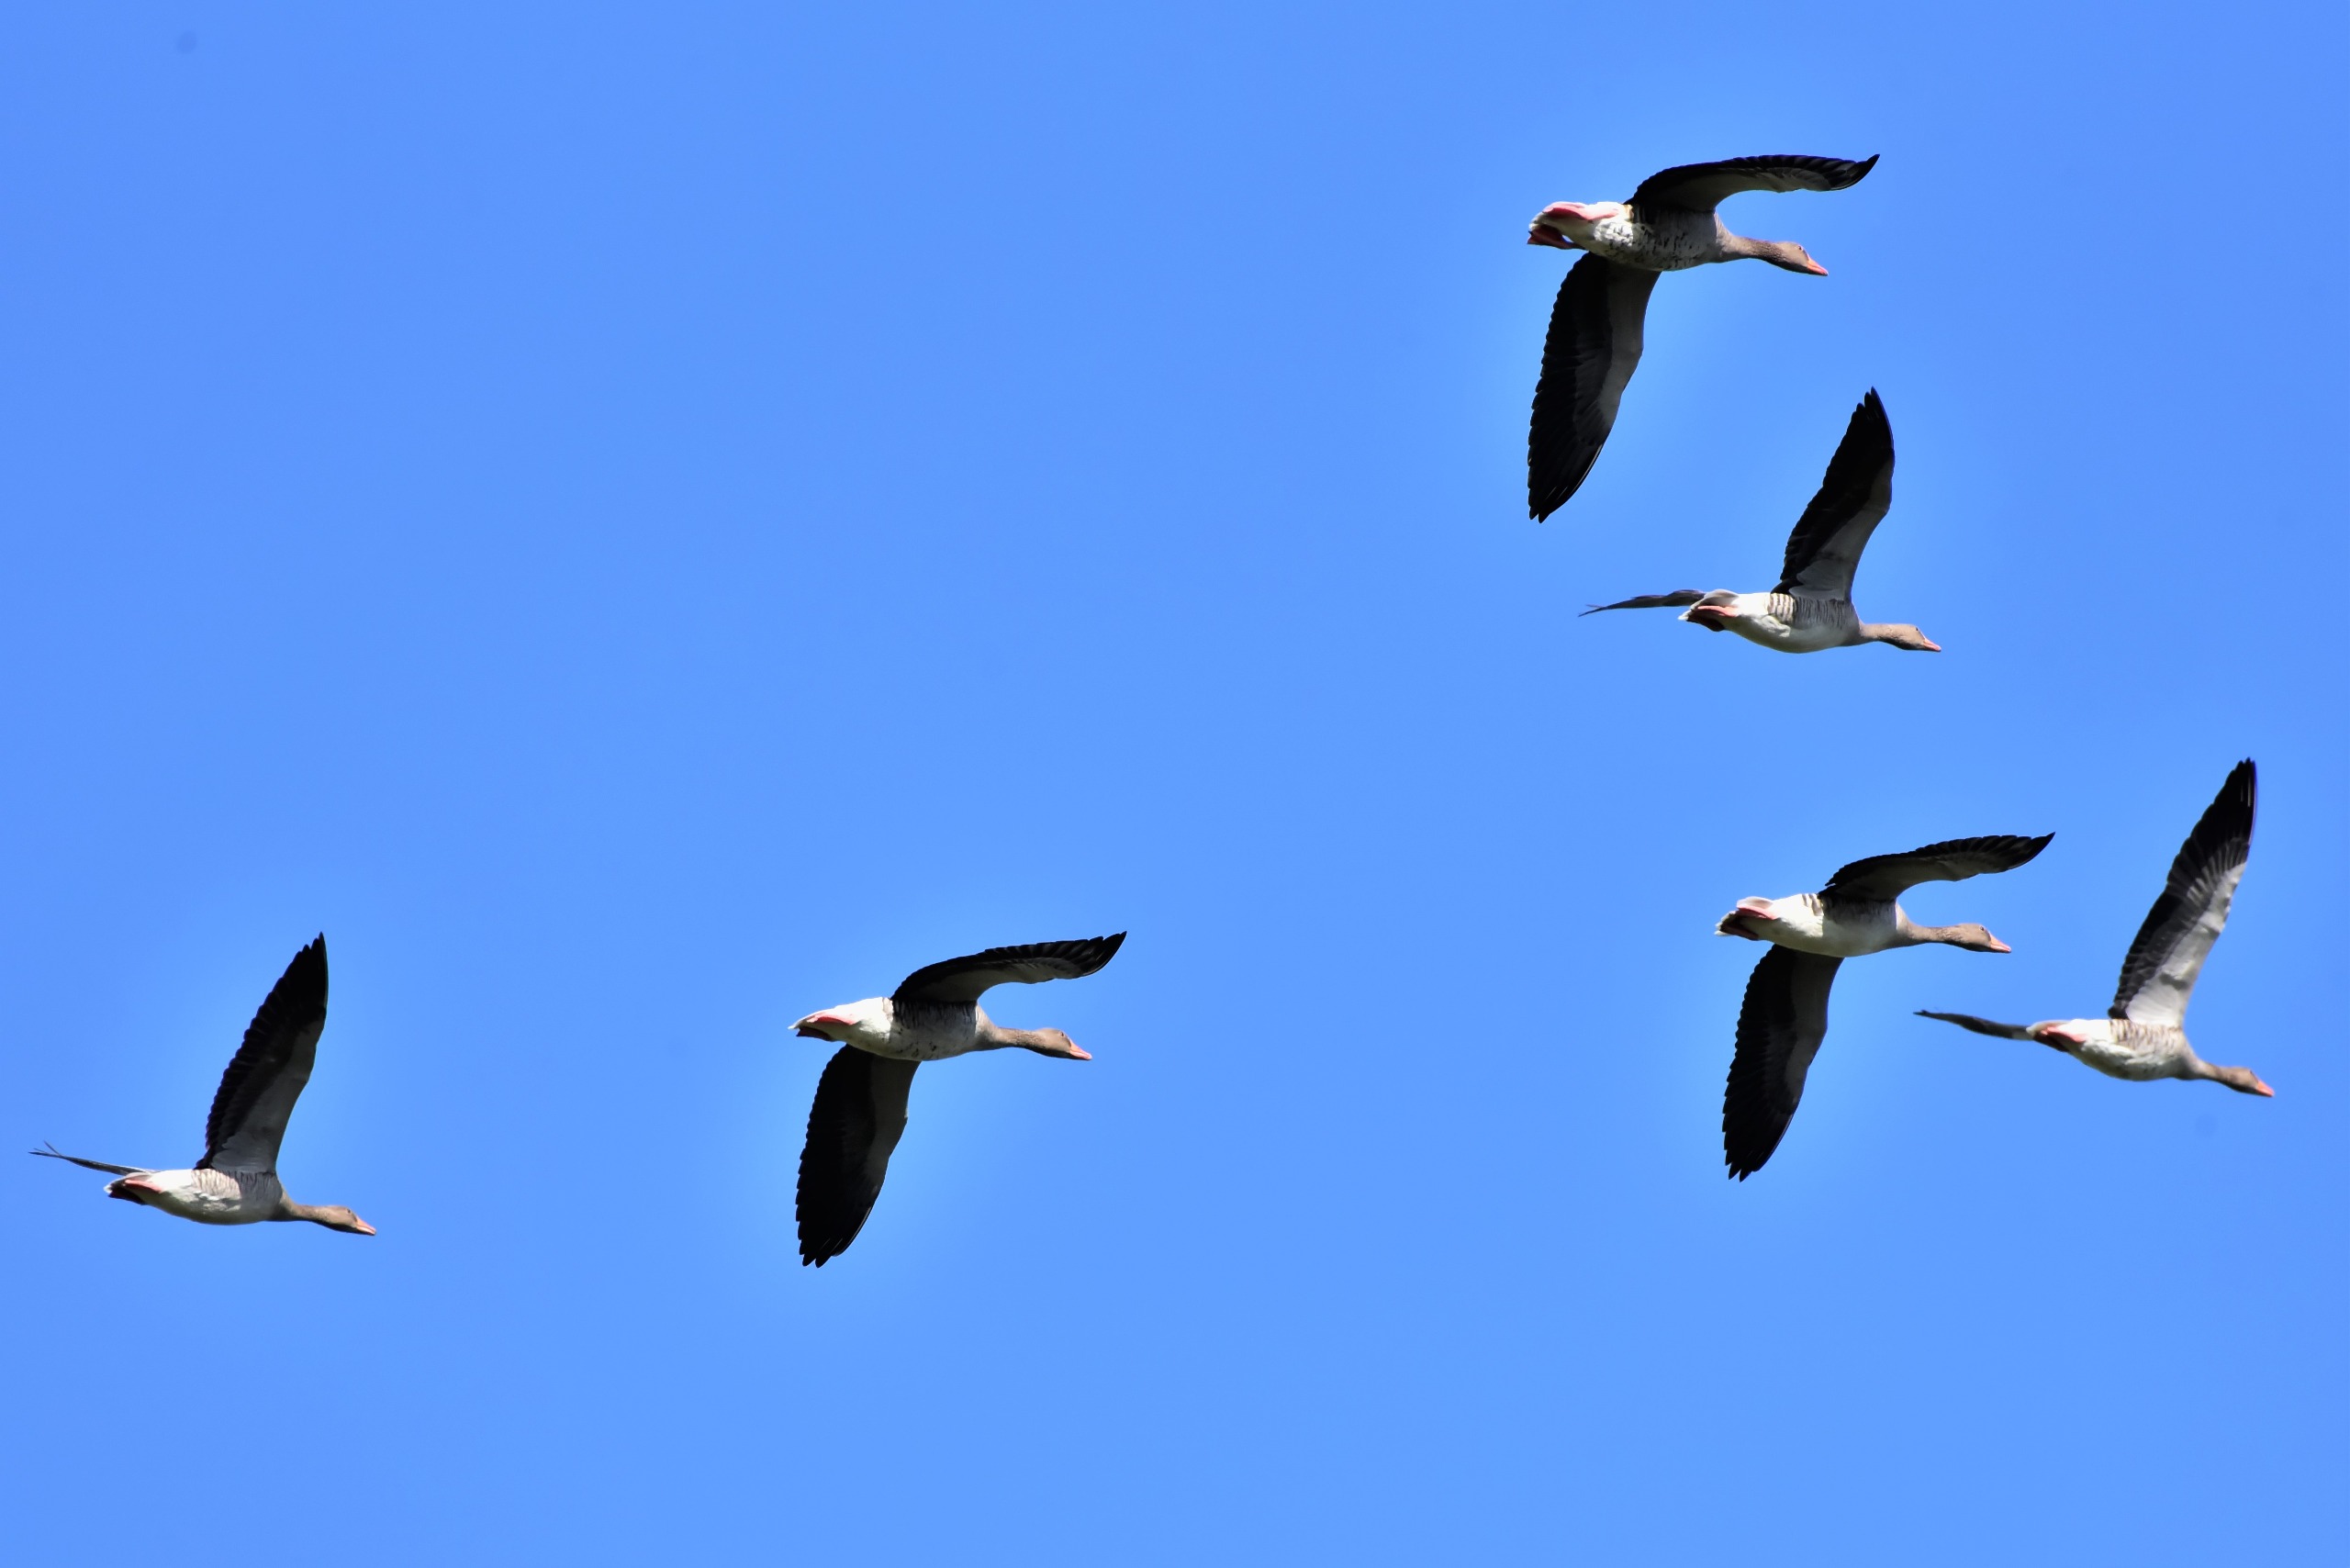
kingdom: Animalia
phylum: Chordata
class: Aves
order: Anseriformes
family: Anatidae
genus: Anser
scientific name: Anser anser
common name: Grågås
